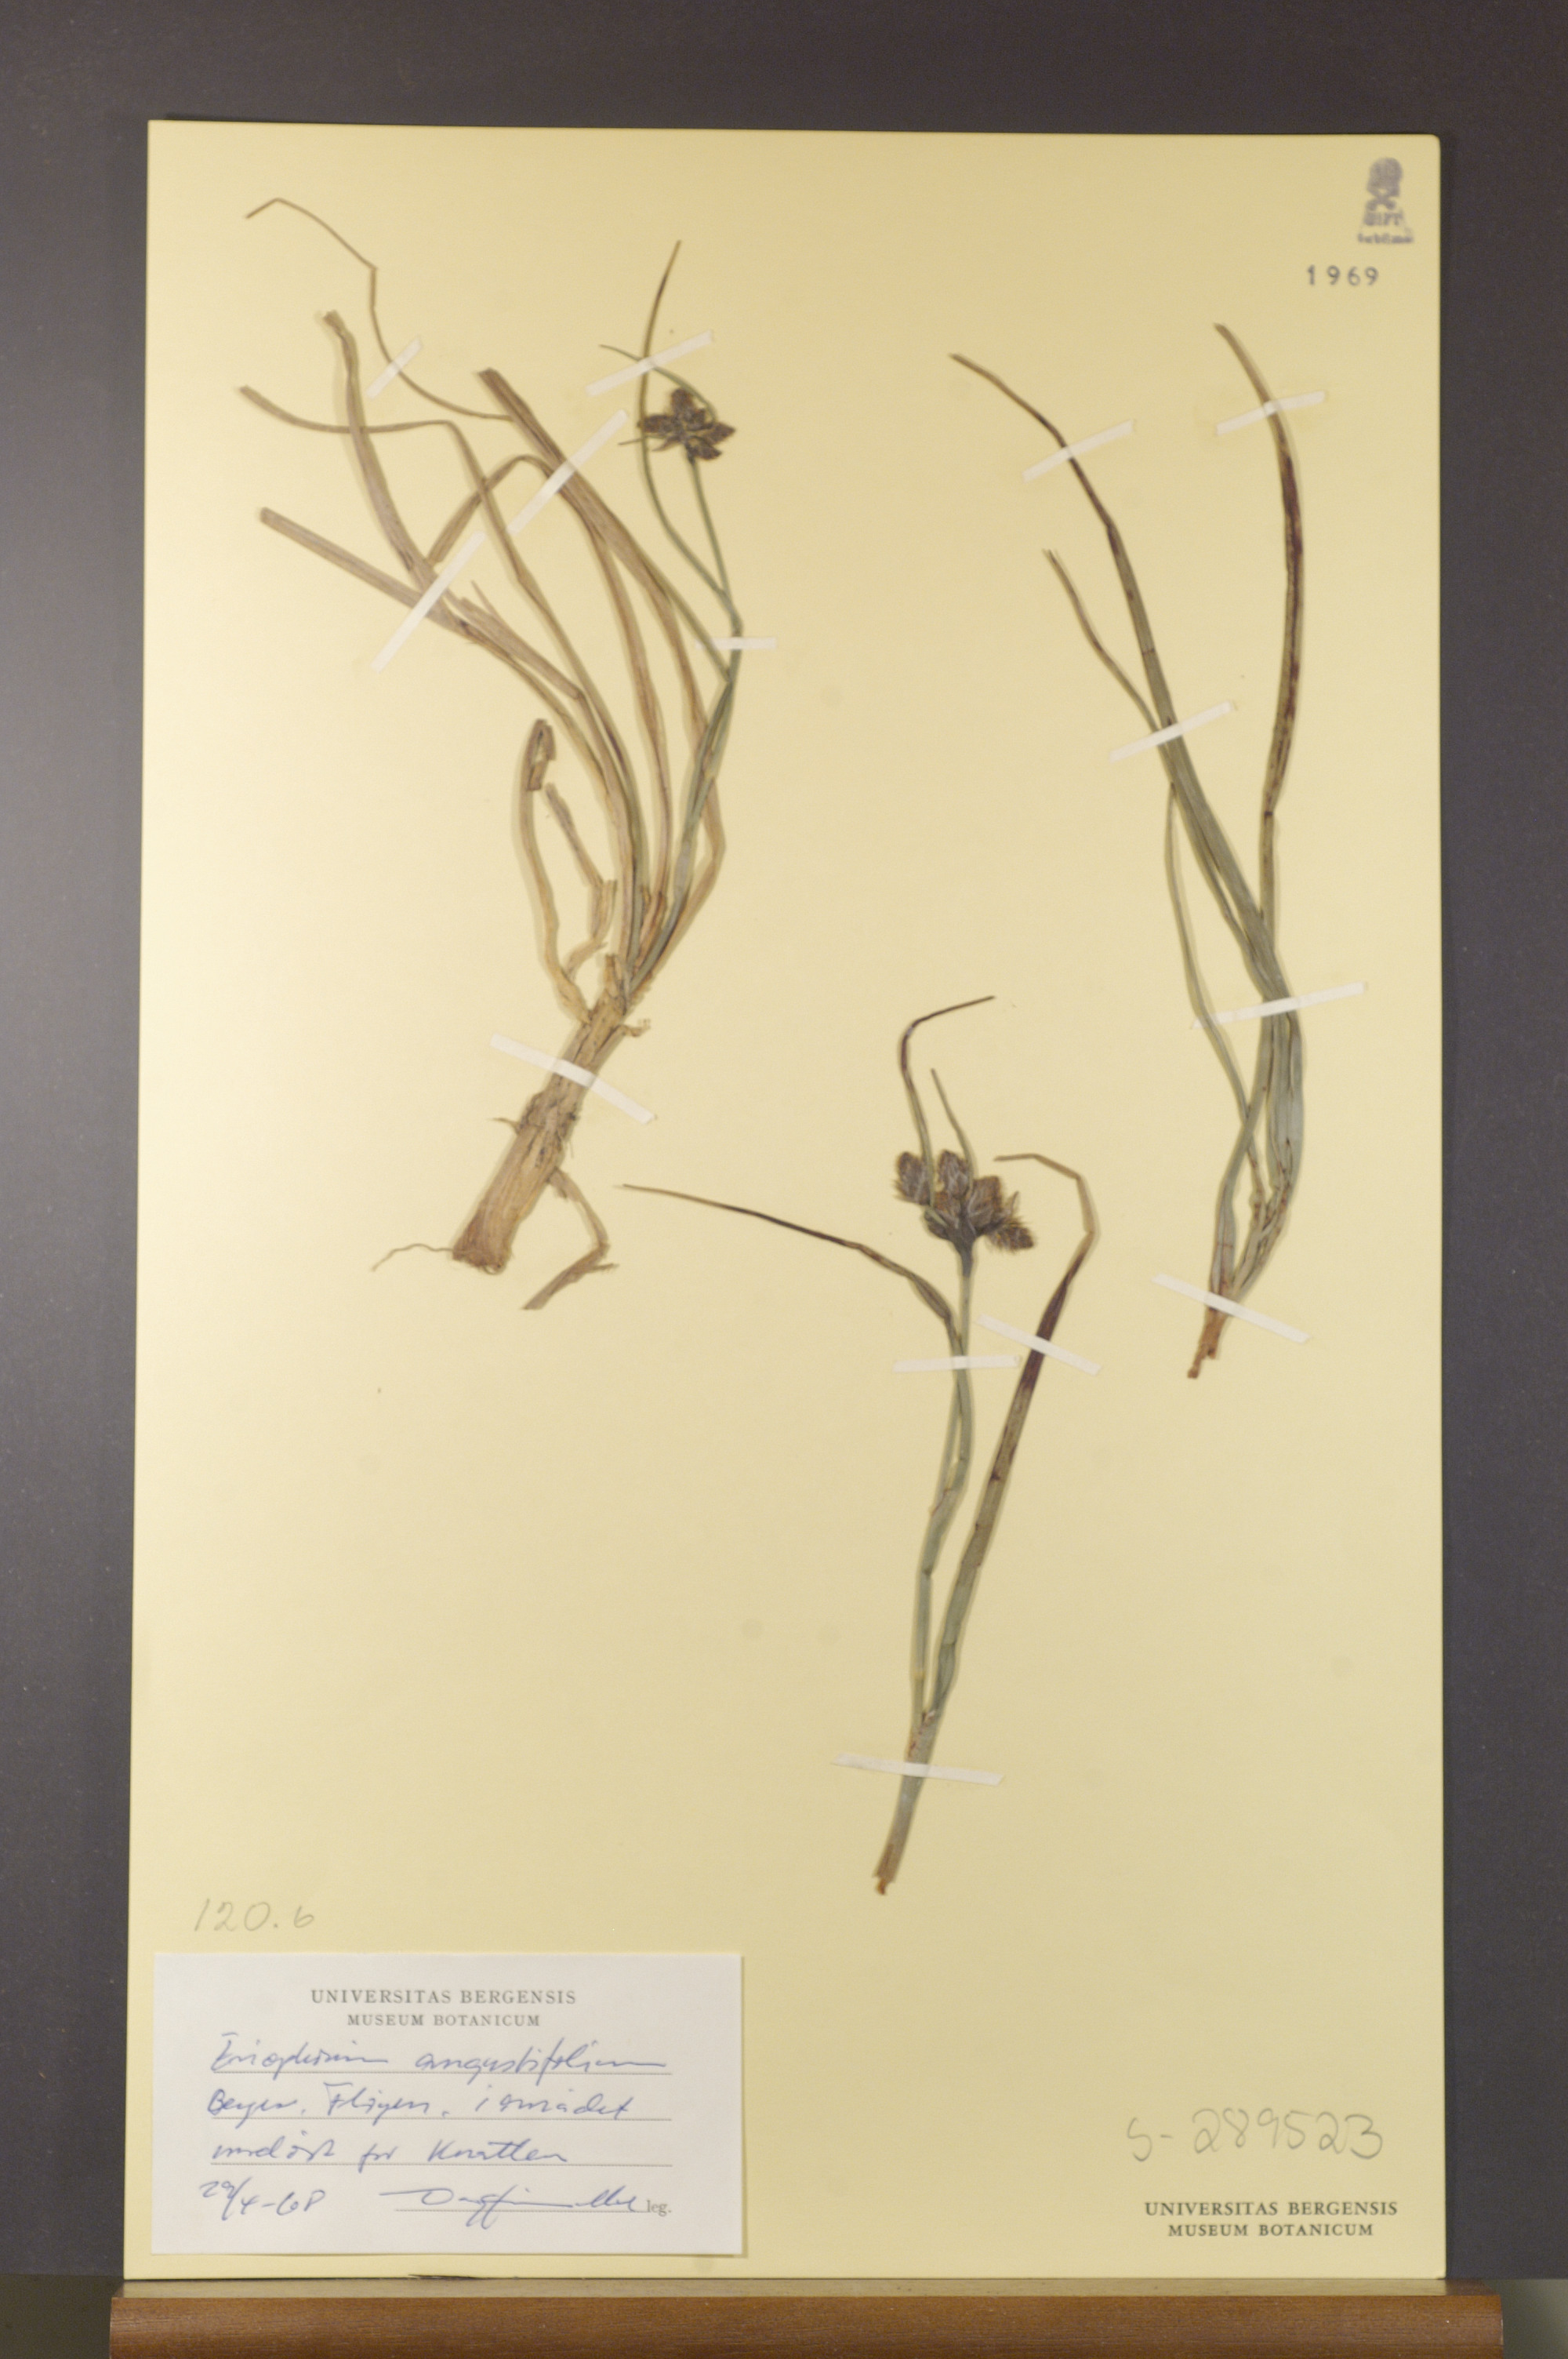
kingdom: Plantae
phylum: Tracheophyta
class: Liliopsida
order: Poales
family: Cyperaceae
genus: Eriophorum
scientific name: Eriophorum angustifolium
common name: Common cottongrass
